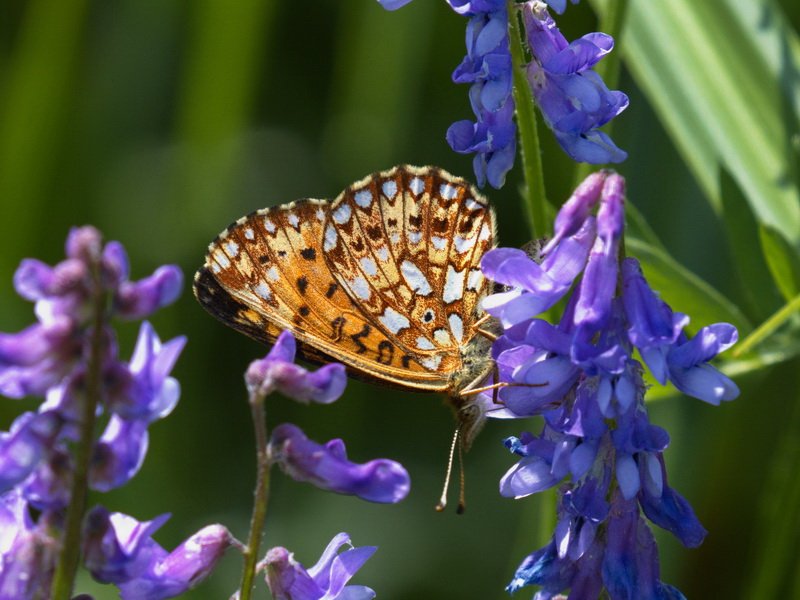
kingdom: Animalia
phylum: Arthropoda
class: Insecta
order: Lepidoptera
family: Nymphalidae
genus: Boloria
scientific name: Boloria selene
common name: Silver-bordered Fritillary
